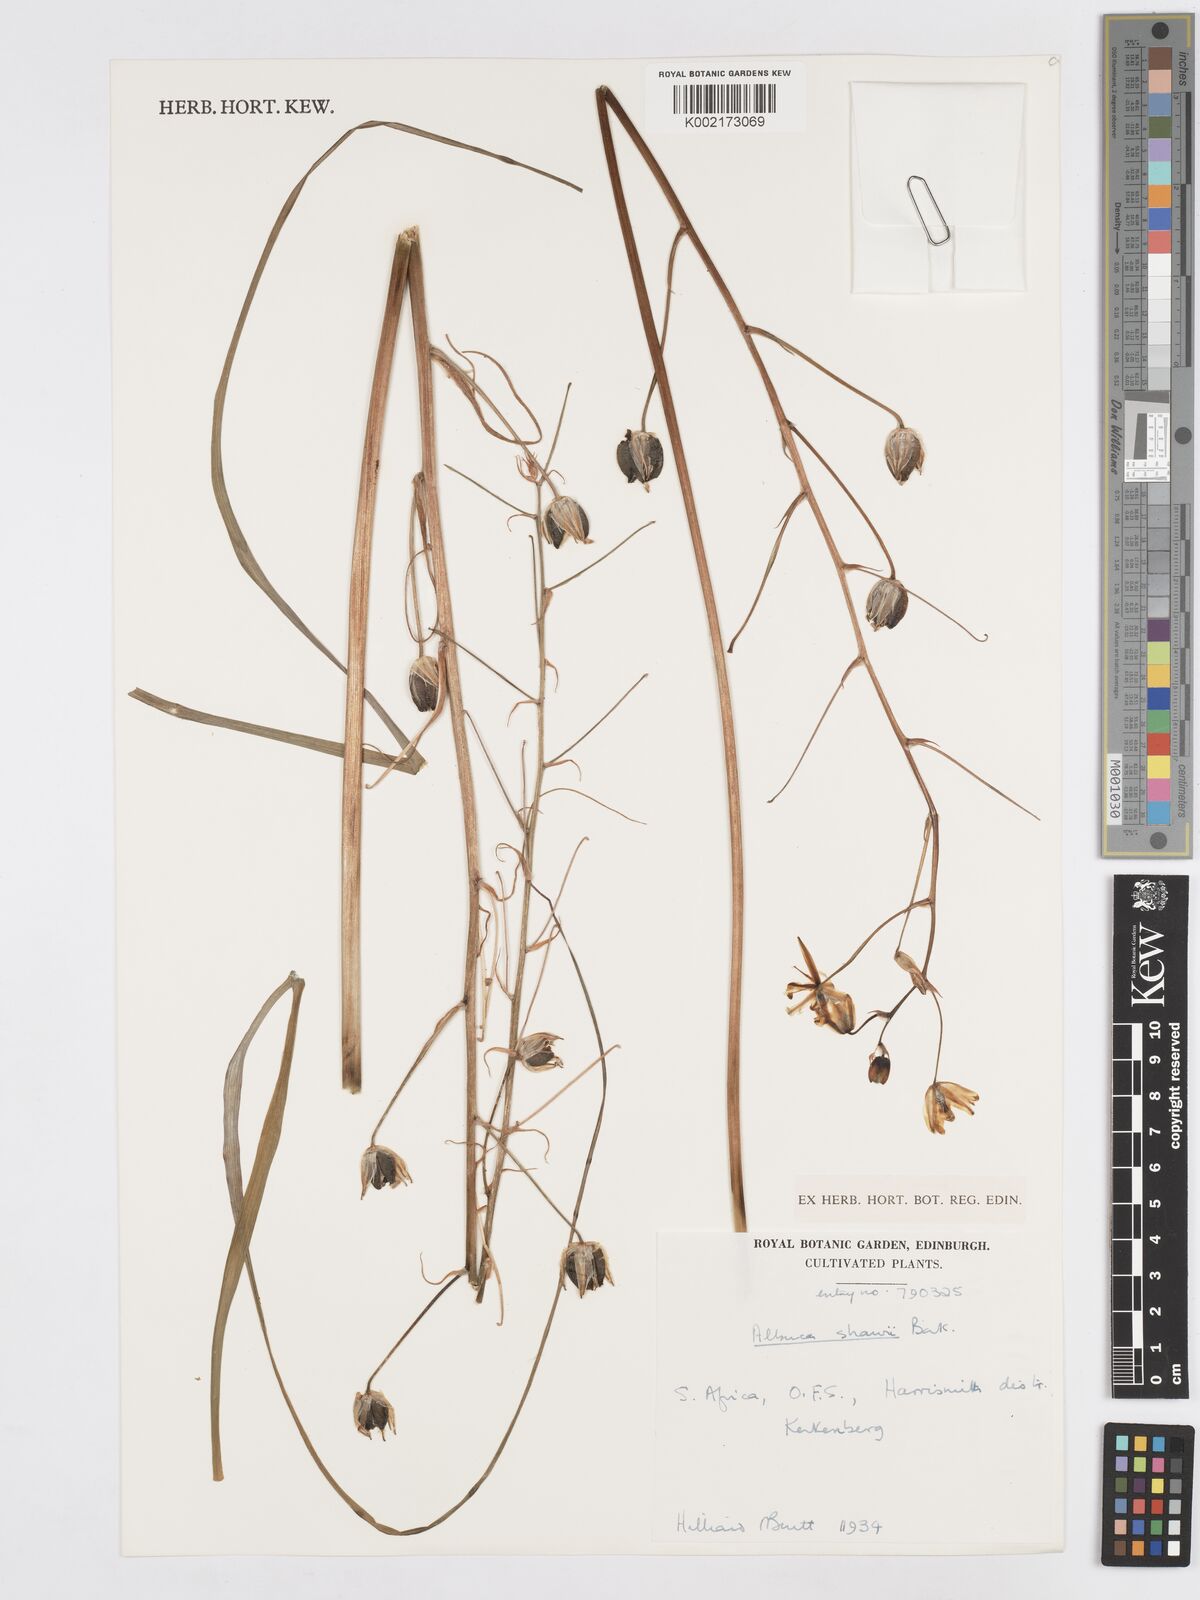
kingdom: Plantae
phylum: Tracheophyta
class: Liliopsida
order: Asparagales
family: Asparagaceae
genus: Albuca
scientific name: Albuca shawii
